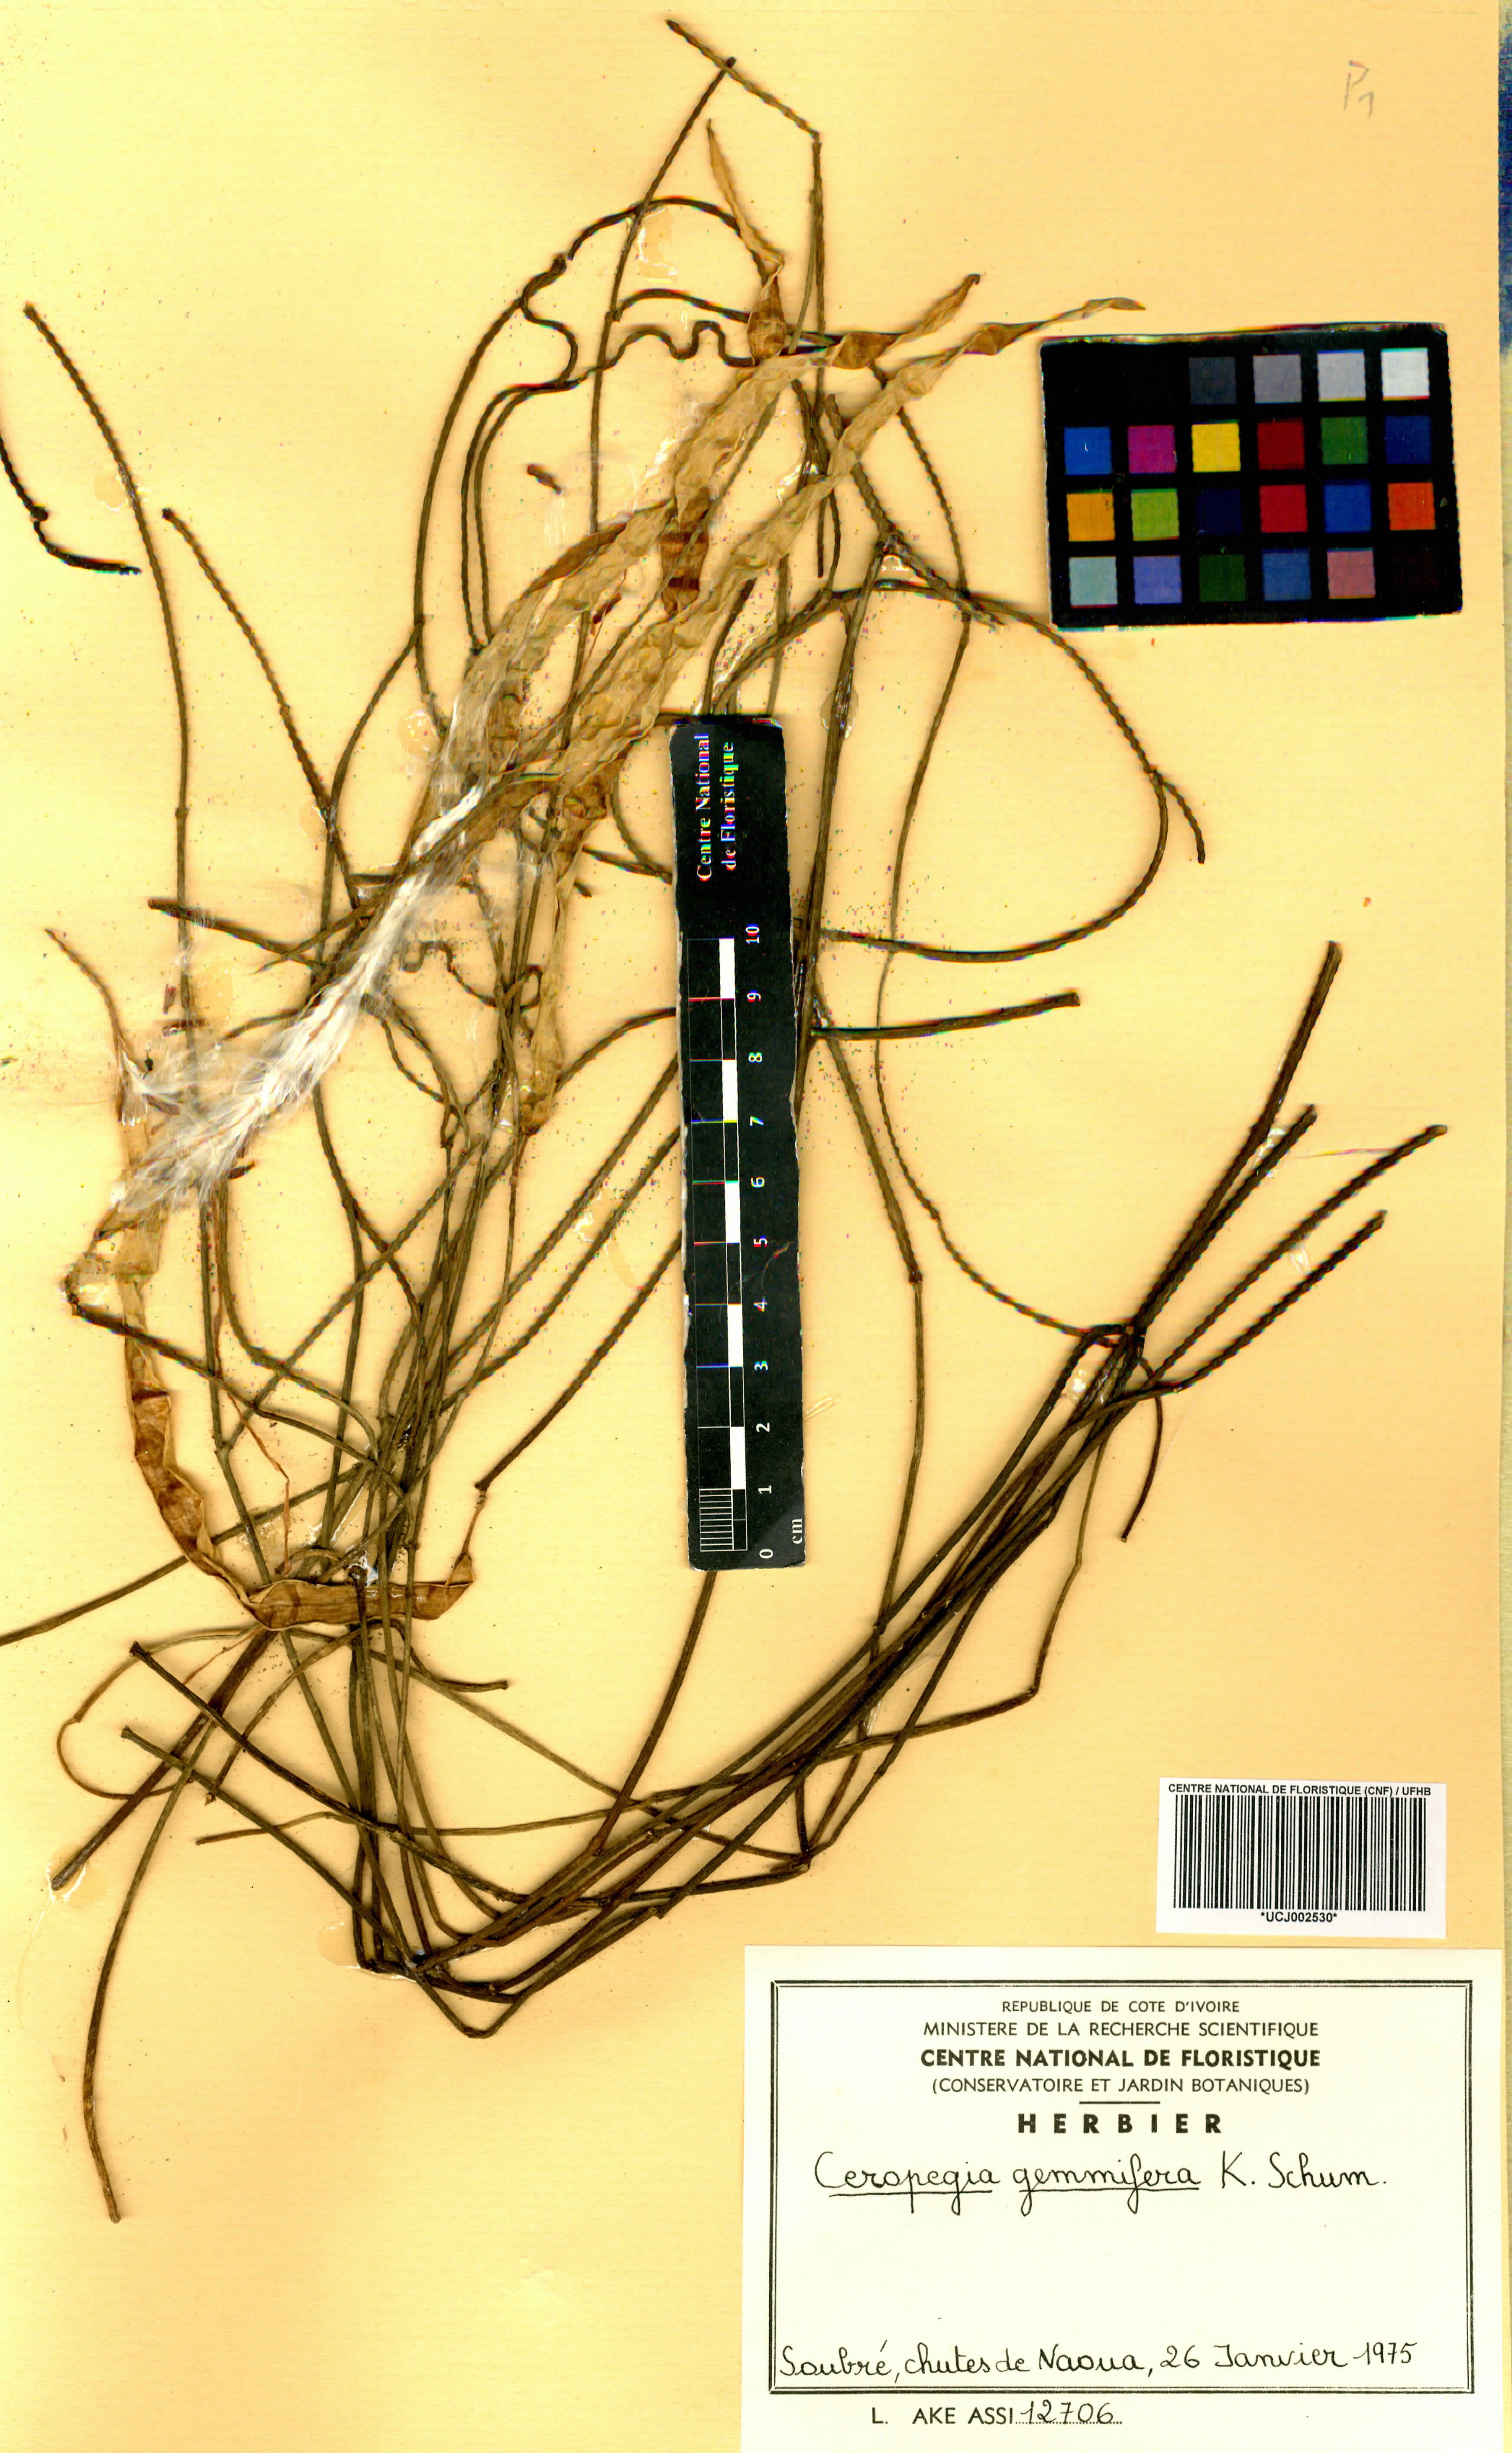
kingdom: Plantae
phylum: Tracheophyta
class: Magnoliopsida
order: Gentianales
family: Apocynaceae
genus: Ceropegia
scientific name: Ceropegia nilotica
